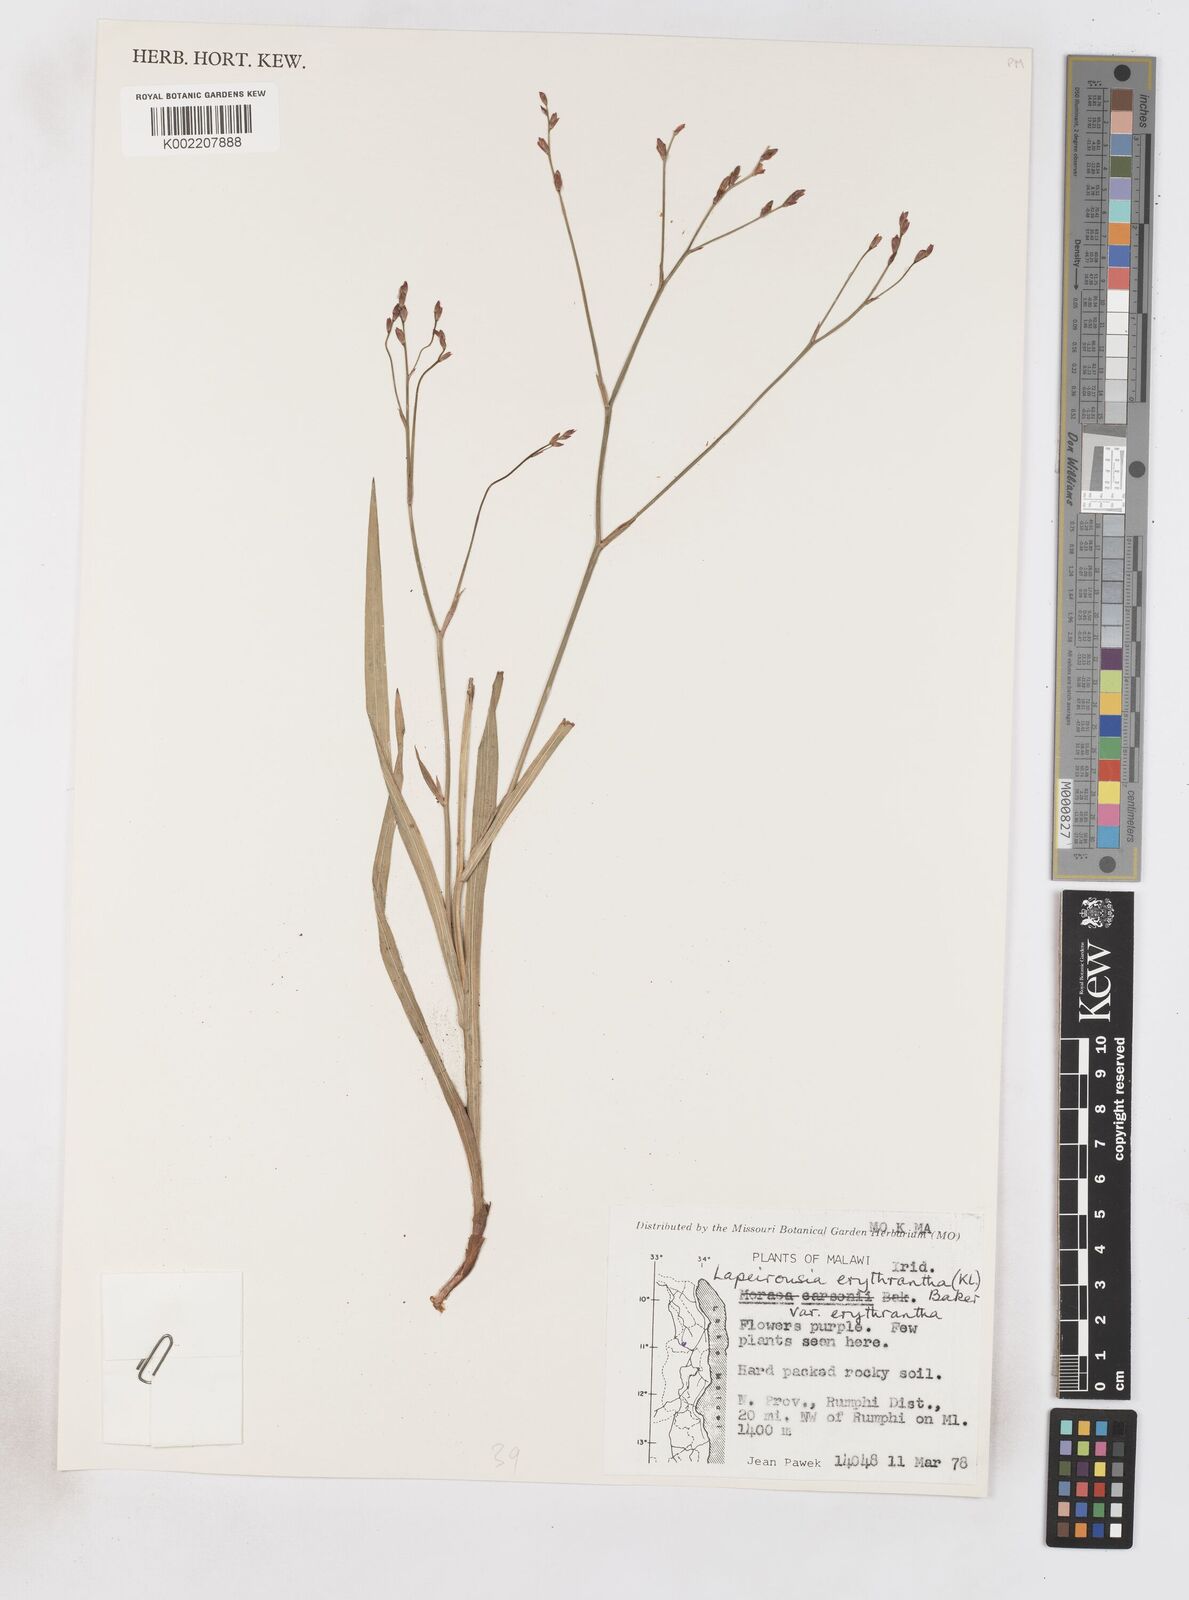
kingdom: Plantae
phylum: Tracheophyta
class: Liliopsida
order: Asparagales
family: Iridaceae
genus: Afrosolen
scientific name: Afrosolen erythranthus
